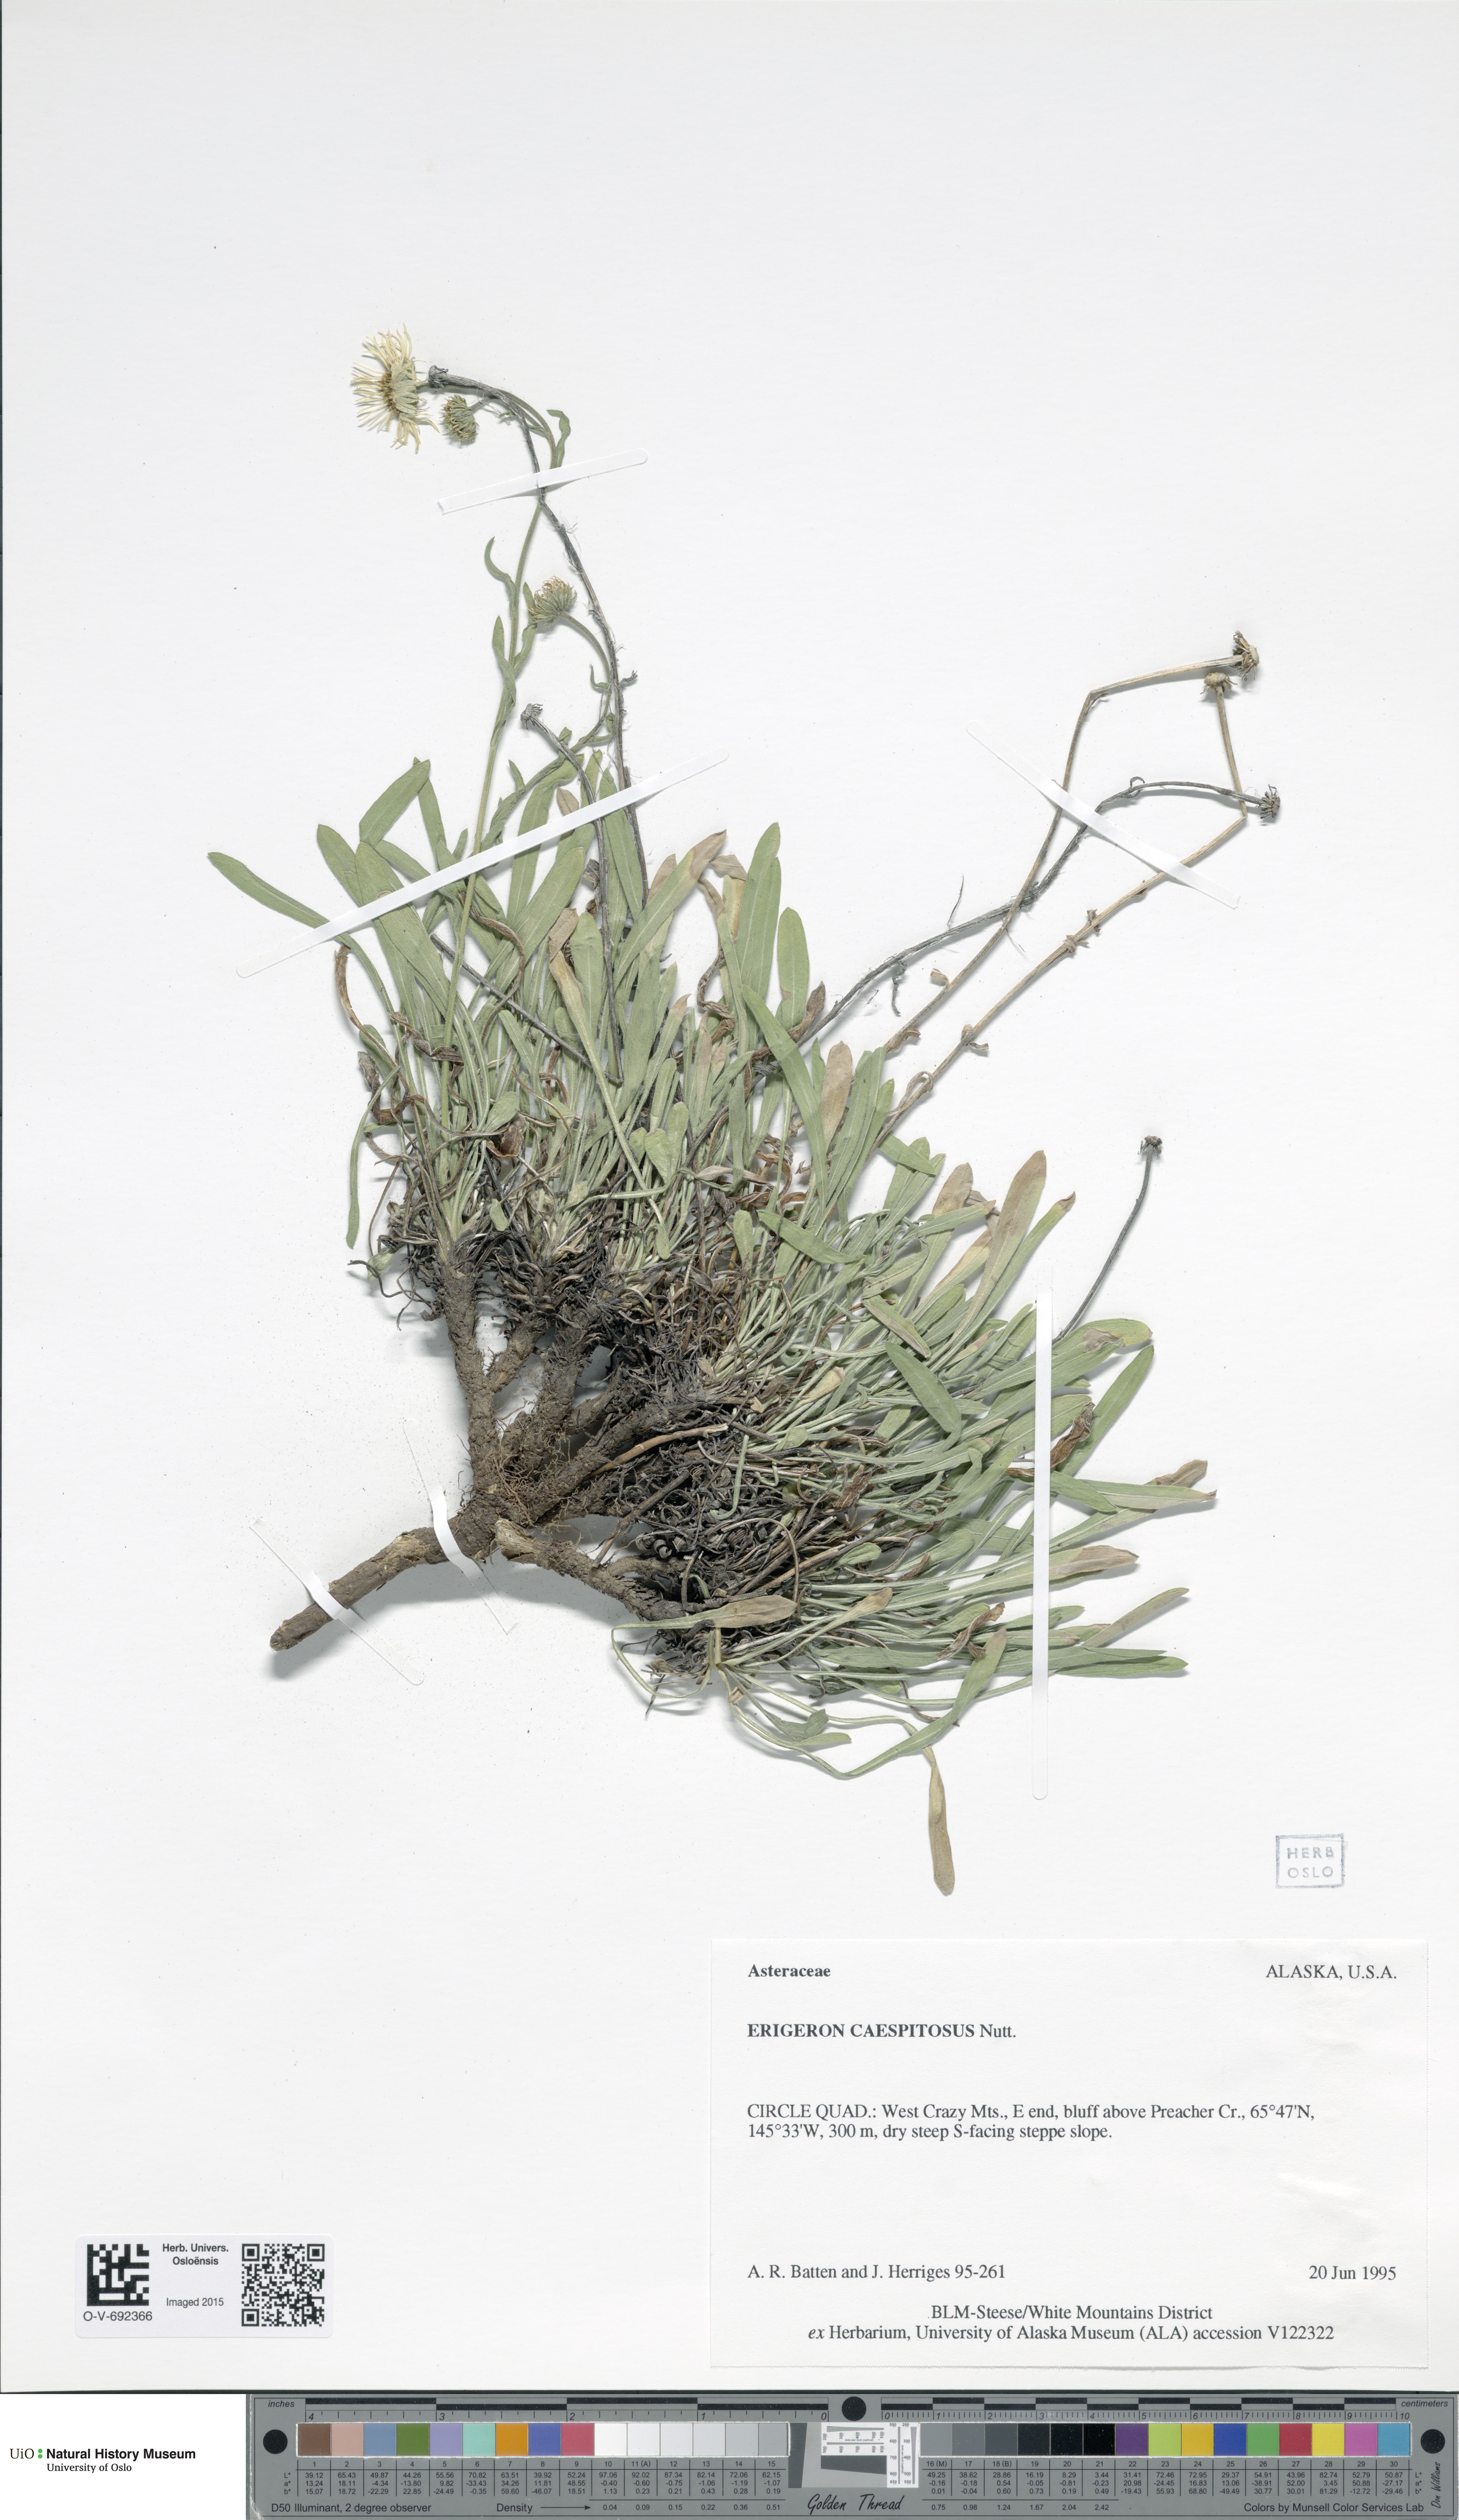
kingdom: Plantae
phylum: Tracheophyta
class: Magnoliopsida
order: Asterales
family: Asteraceae
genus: Erigeron
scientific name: Erigeron cespitosus
